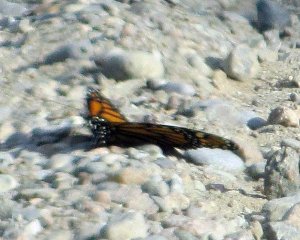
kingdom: Animalia
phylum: Arthropoda
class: Insecta
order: Lepidoptera
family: Nymphalidae
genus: Danaus
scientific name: Danaus plexippus
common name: Monarch
